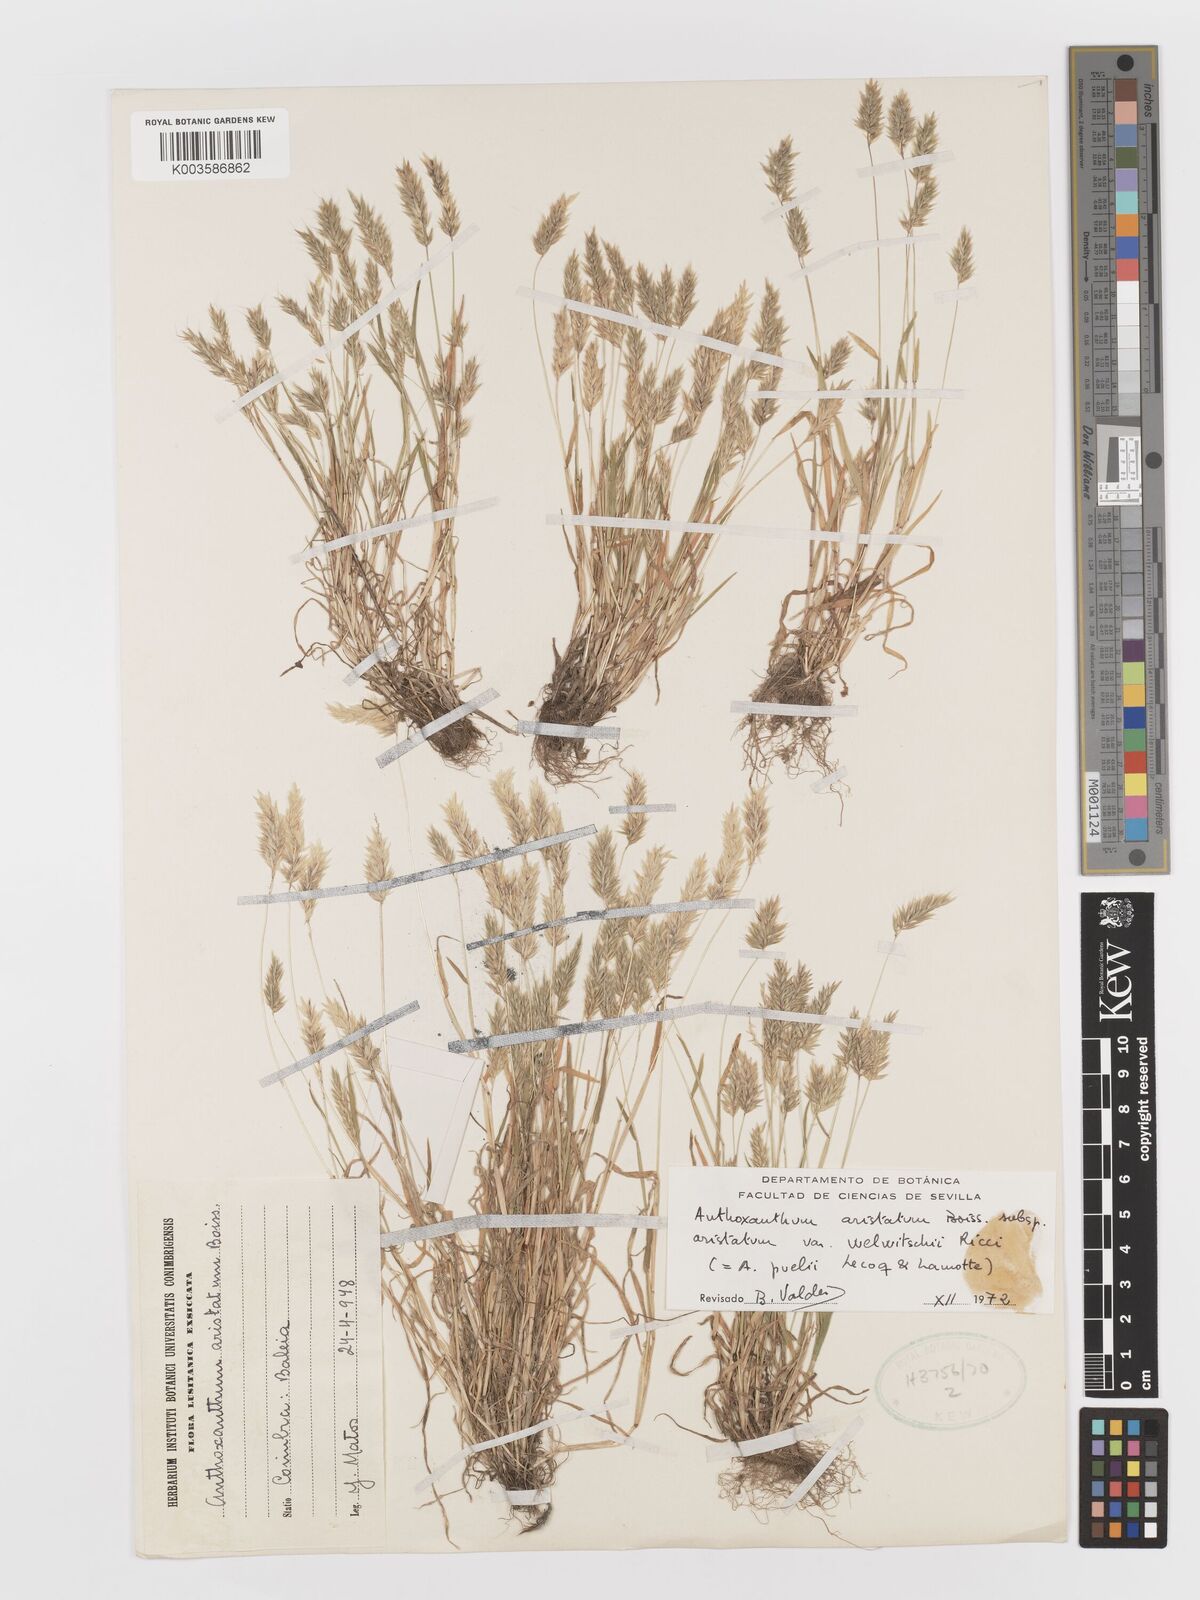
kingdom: Plantae
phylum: Tracheophyta
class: Liliopsida
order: Poales
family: Poaceae
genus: Anthoxanthum
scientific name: Anthoxanthum
